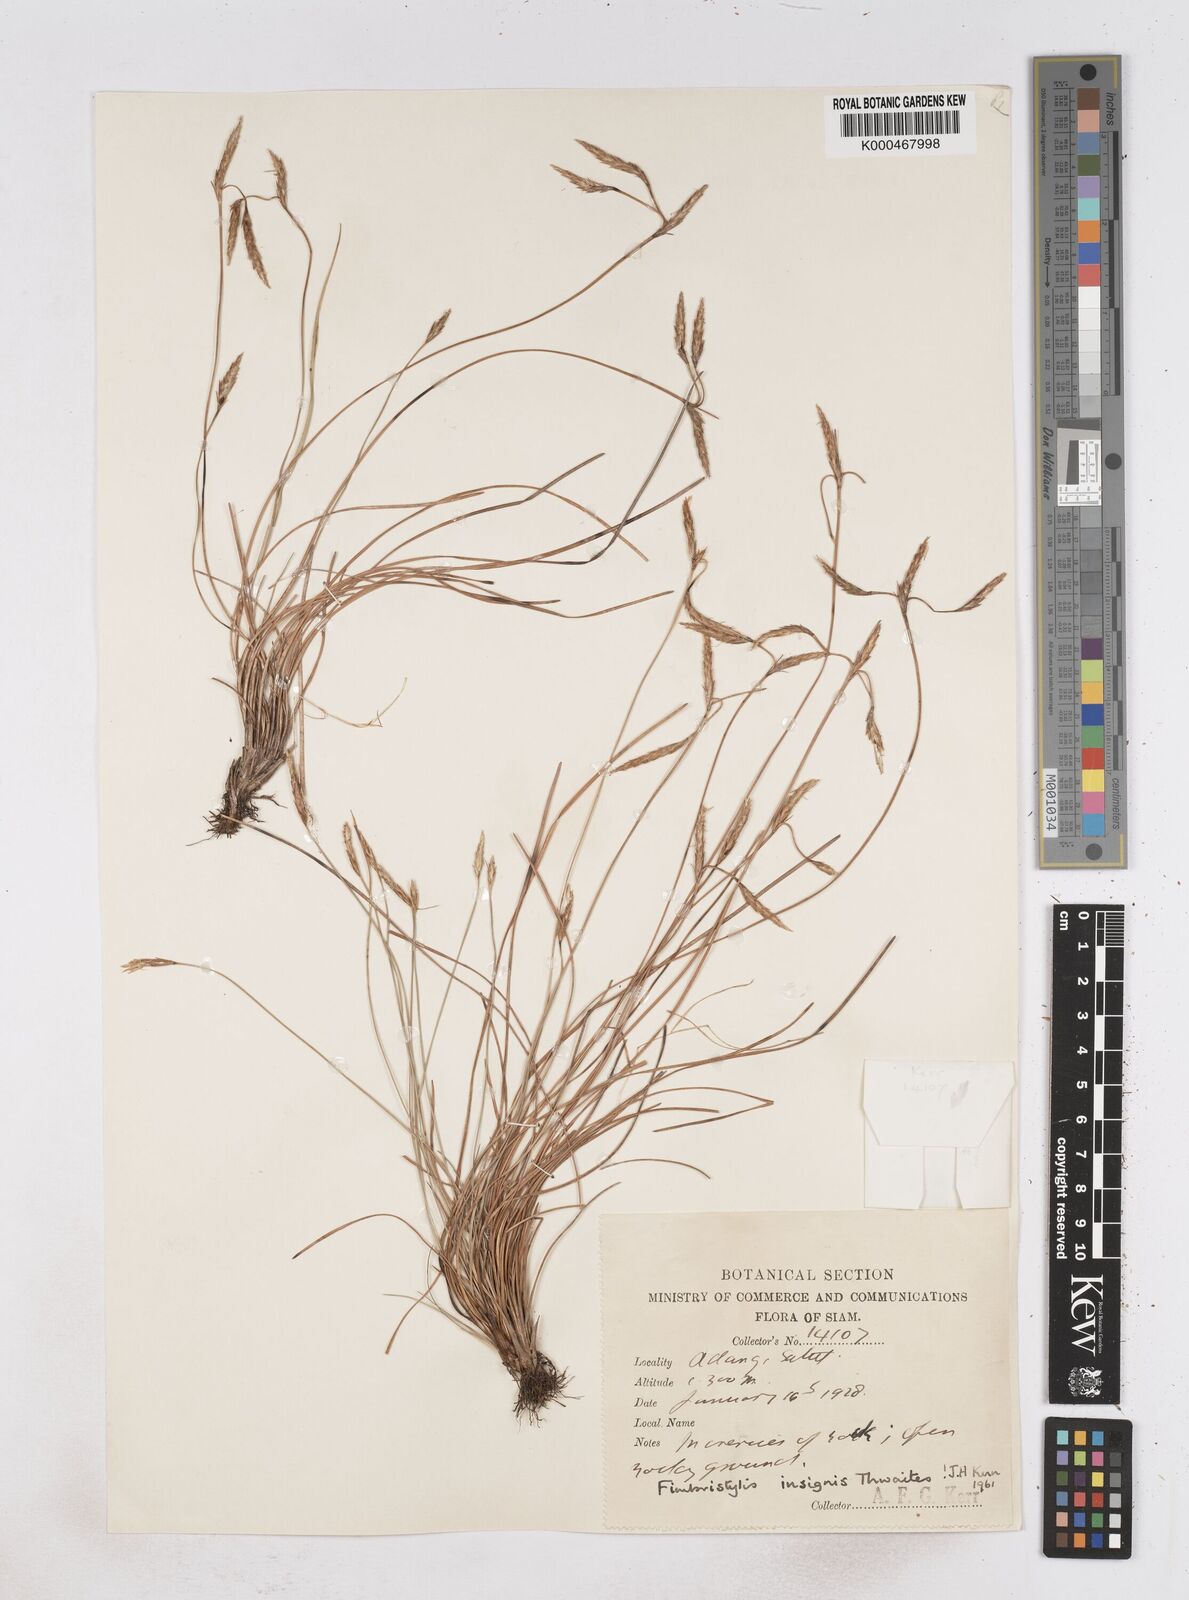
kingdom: Plantae
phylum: Tracheophyta
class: Liliopsida
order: Poales
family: Cyperaceae
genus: Fimbristylis
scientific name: Fimbristylis insignis
